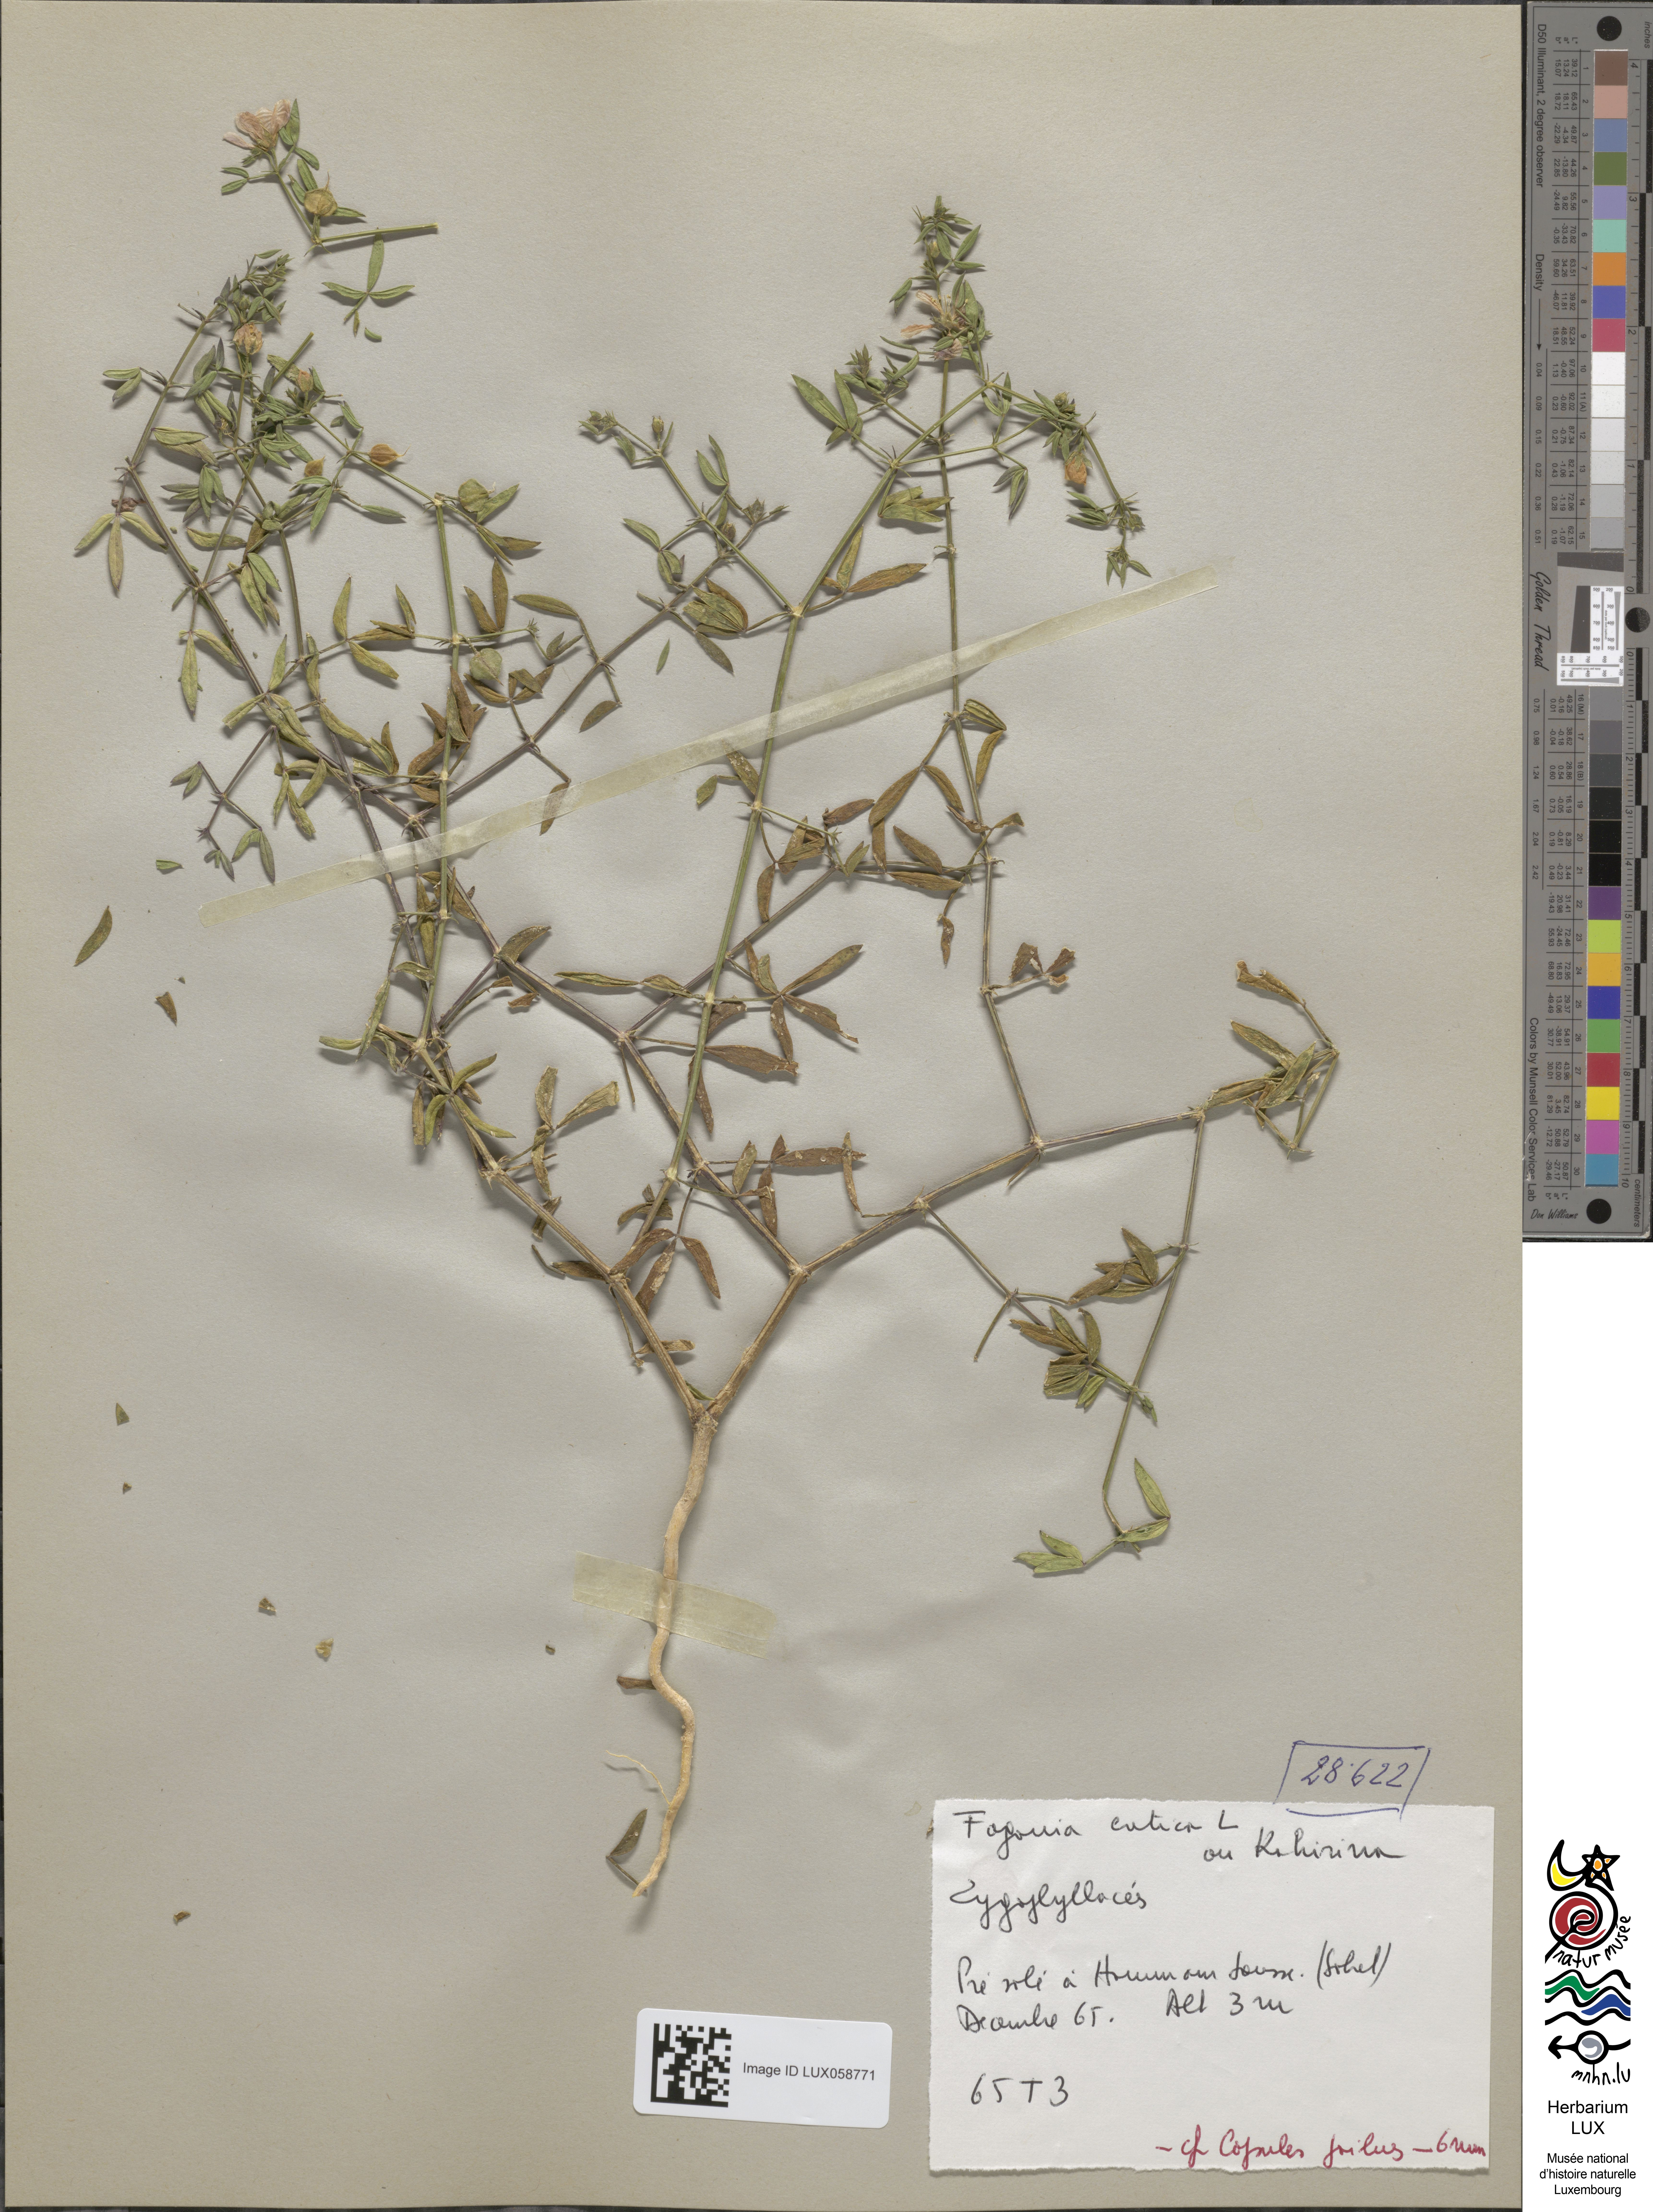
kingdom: Plantae
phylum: Tracheophyta
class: Magnoliopsida
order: Zygophyllales
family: Zygophyllaceae
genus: Fagonia
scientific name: Fagonia cretica
